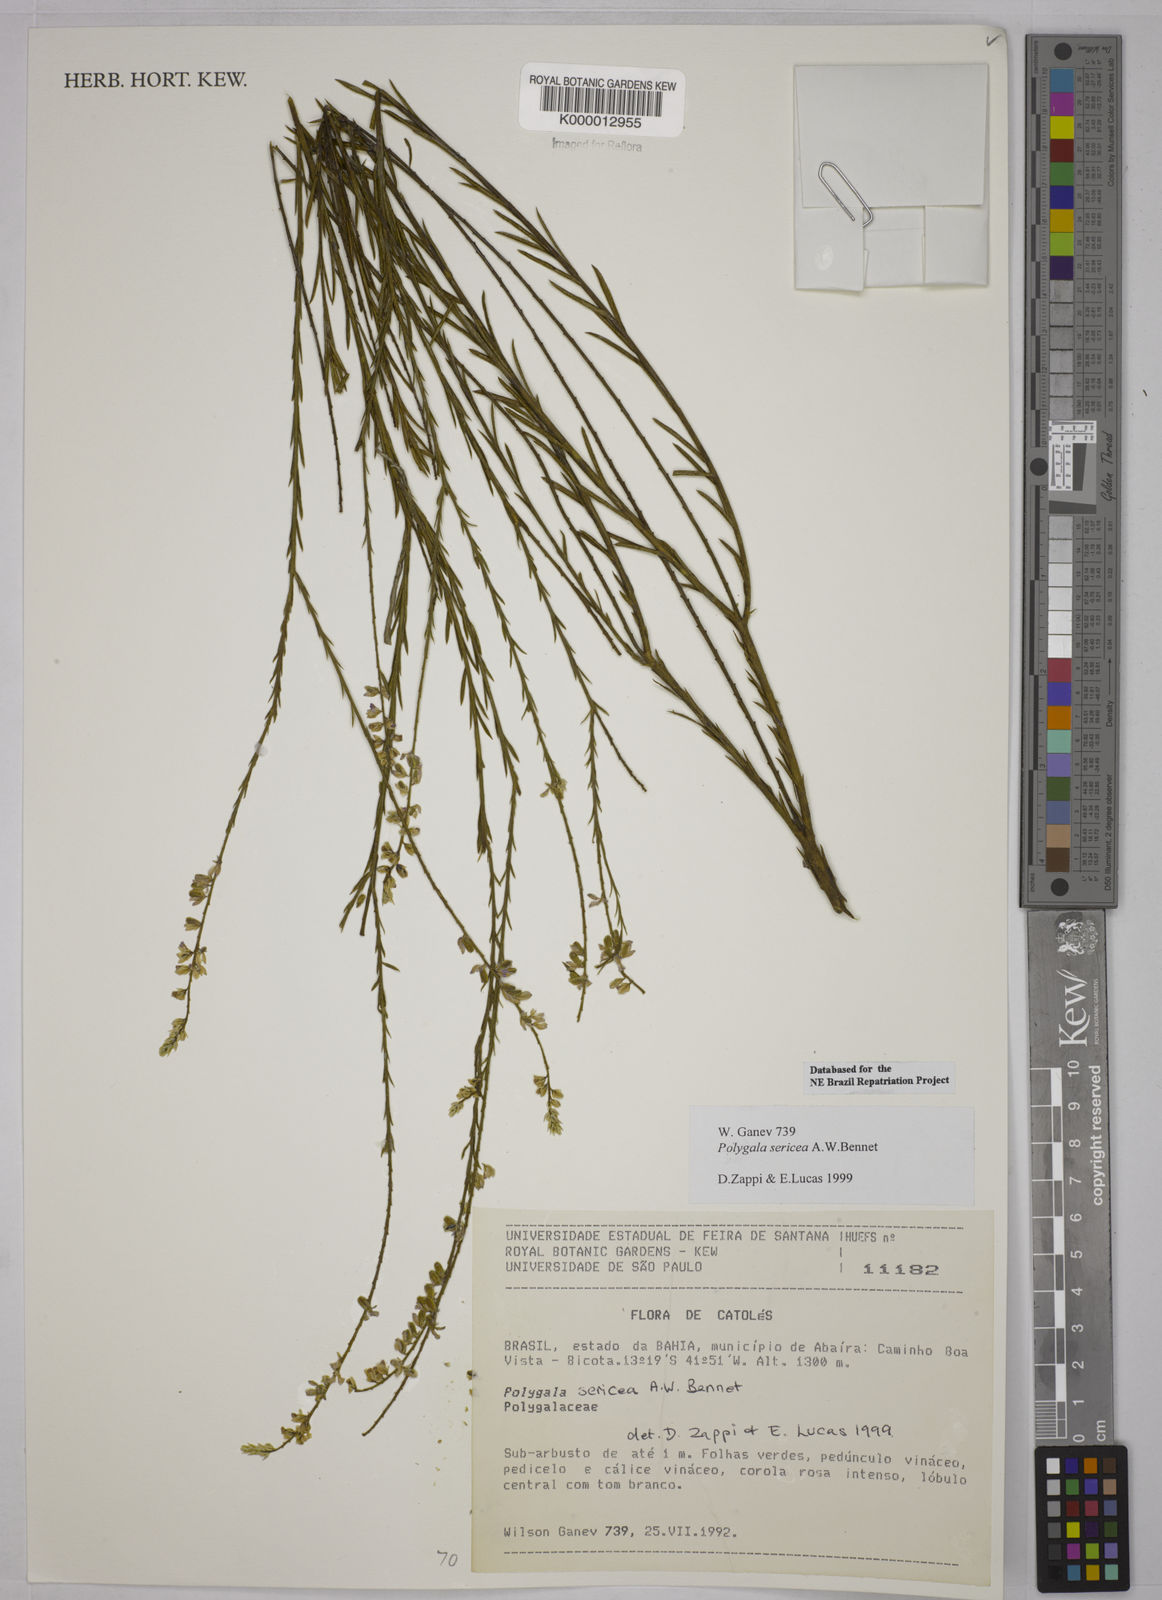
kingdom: Plantae
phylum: Tracheophyta
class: Magnoliopsida
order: Fabales
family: Polygalaceae
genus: Polygala
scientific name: Polygala sericea
